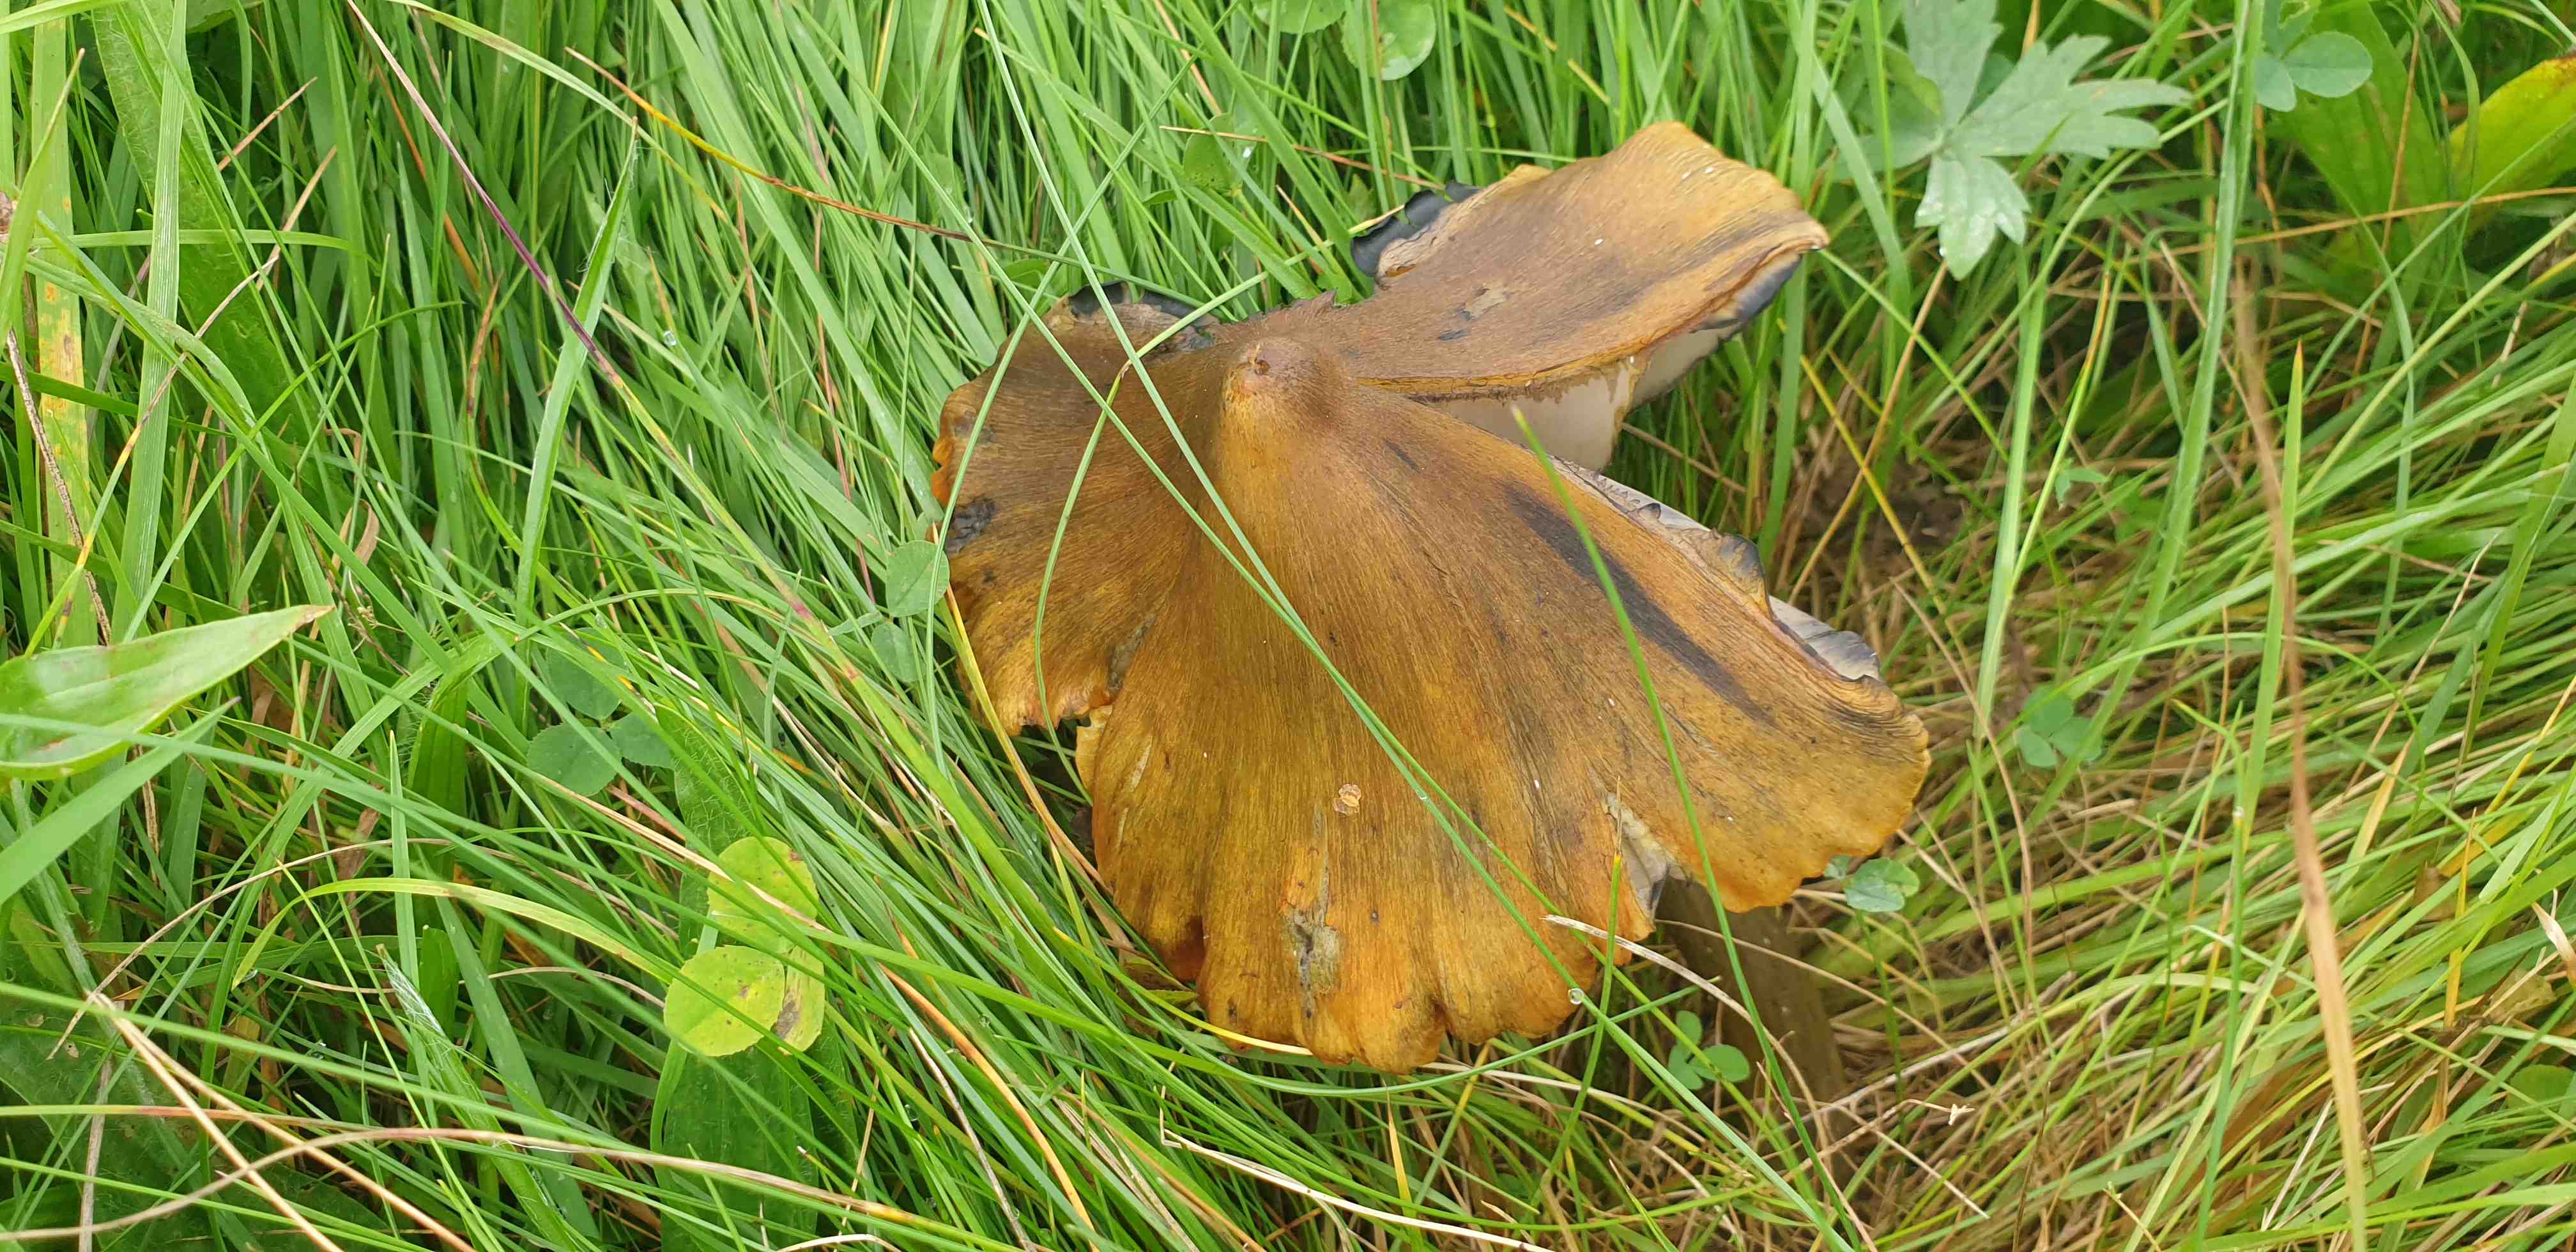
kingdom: Fungi
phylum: Basidiomycota
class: Agaricomycetes
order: Agaricales
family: Hygrophoraceae
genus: Hygrocybe
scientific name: Hygrocybe conica
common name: kegle-vokshat
